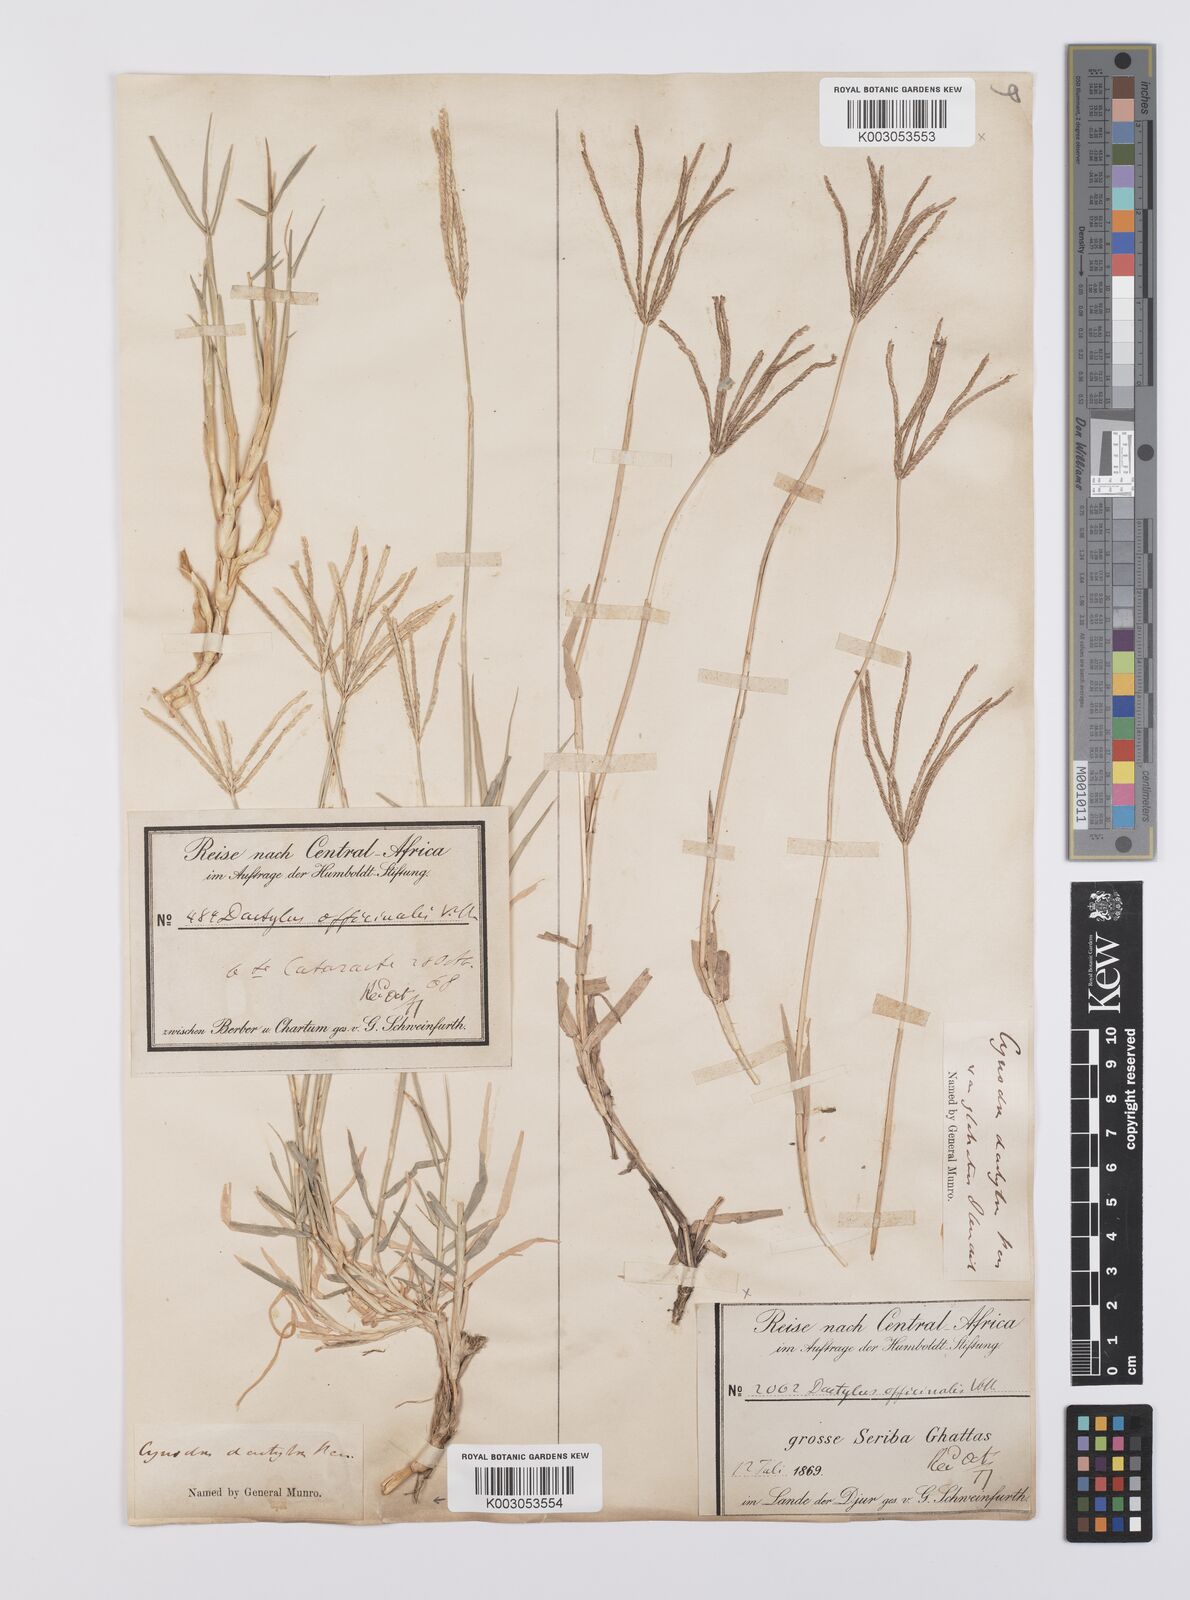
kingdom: Plantae
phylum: Tracheophyta
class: Liliopsida
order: Poales
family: Poaceae
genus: Cynodon
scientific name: Cynodon dactylon
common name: Bermuda grass
